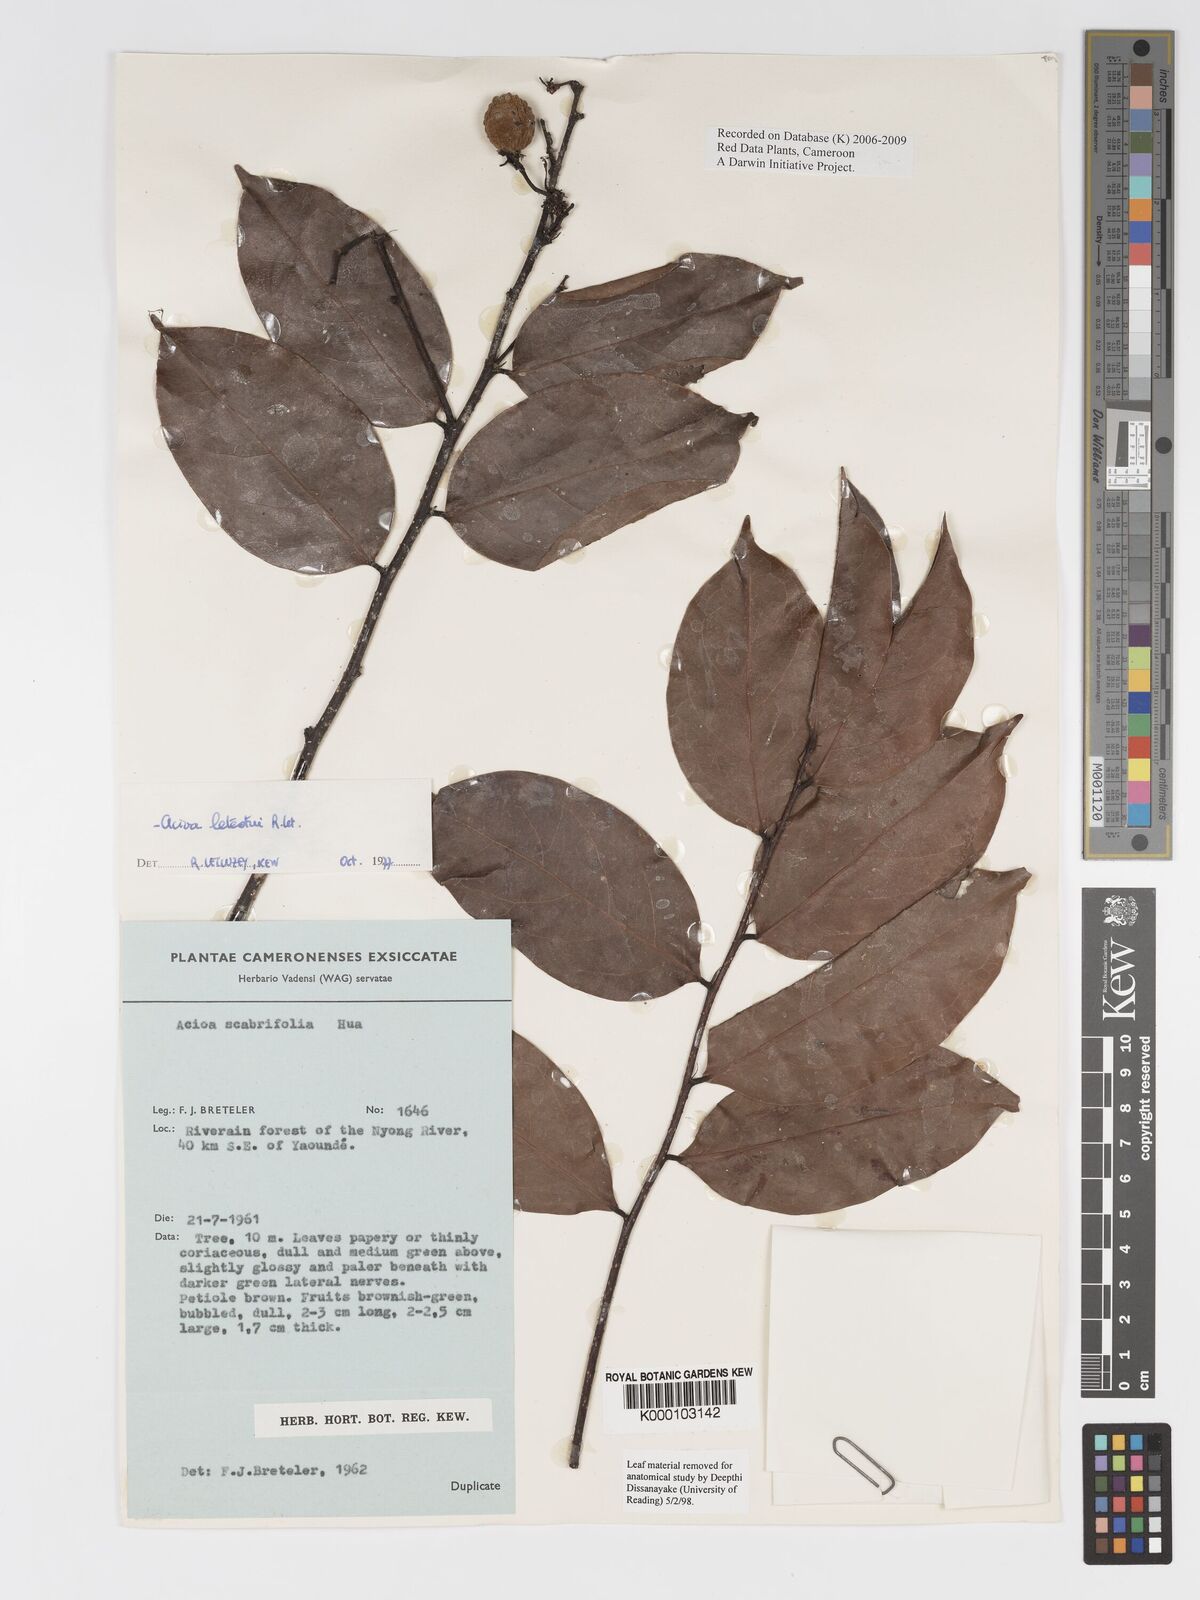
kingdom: Plantae
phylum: Tracheophyta
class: Magnoliopsida
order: Malpighiales
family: Chrysobalanaceae
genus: Dactyladenia
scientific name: Dactyladenia letestui
